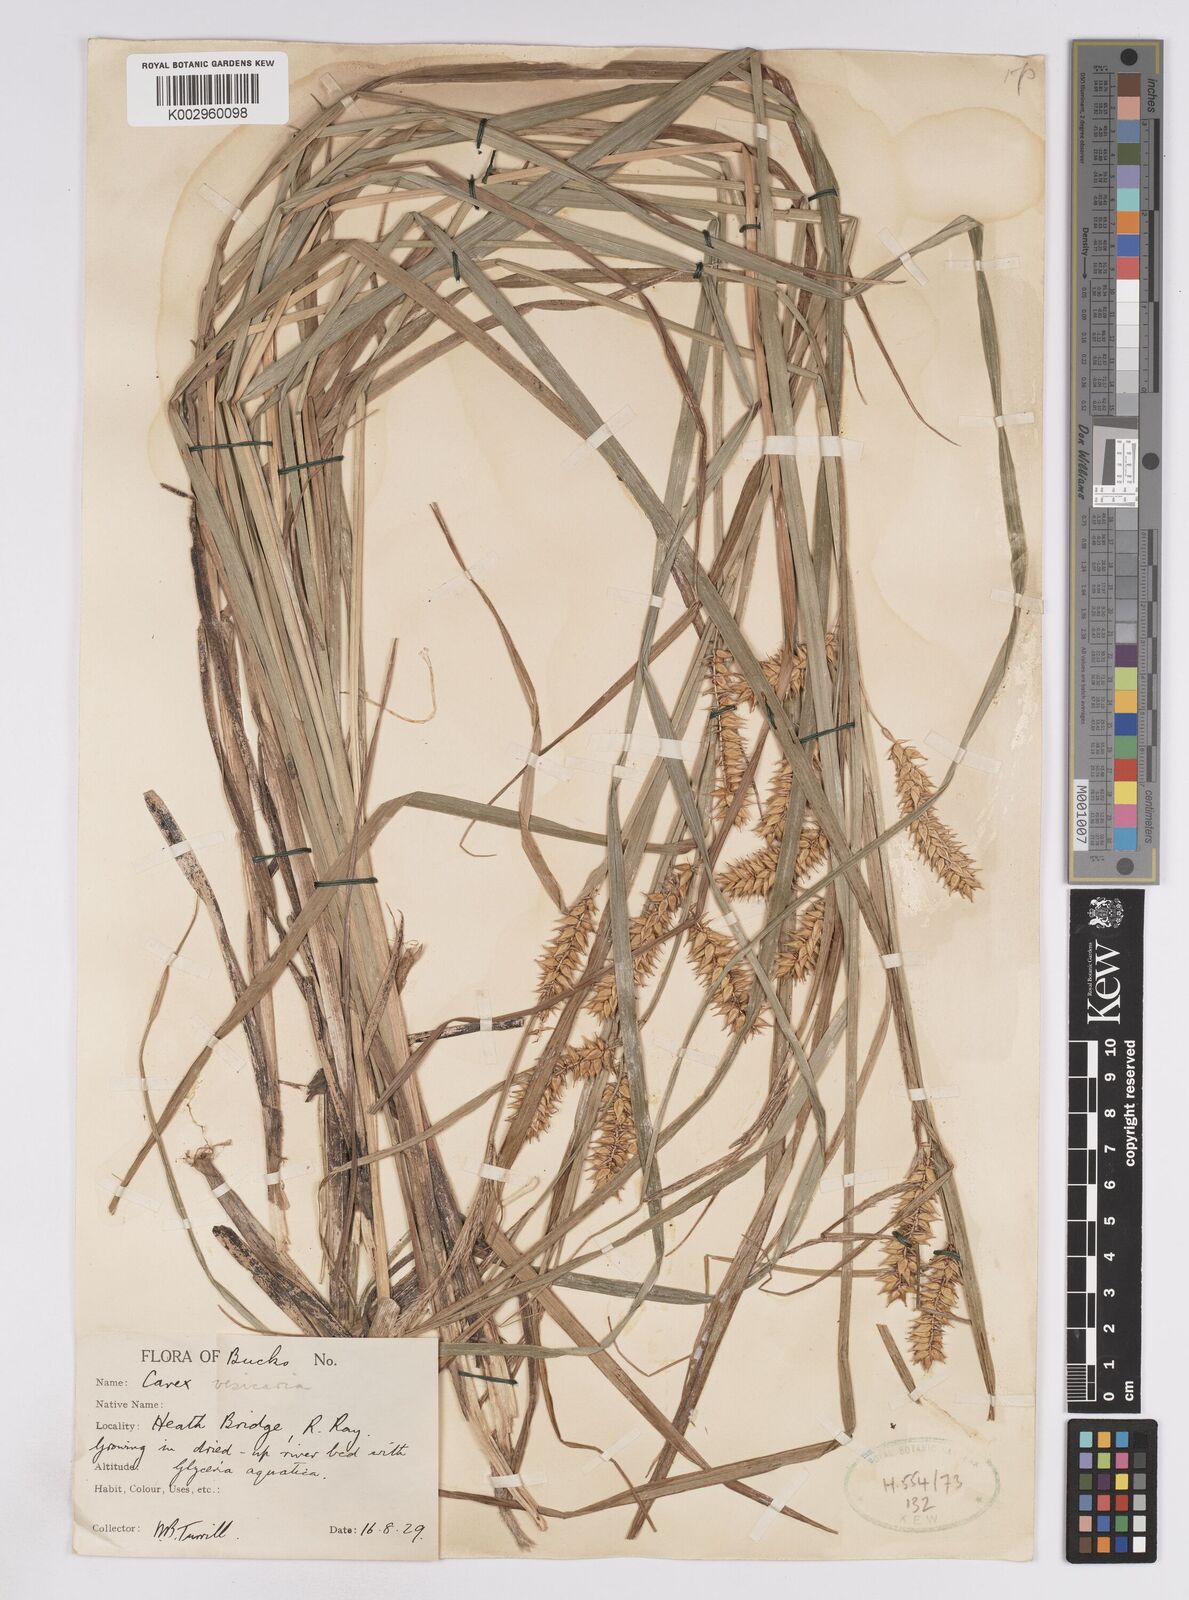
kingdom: Plantae
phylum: Tracheophyta
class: Liliopsida
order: Poales
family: Cyperaceae
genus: Carex
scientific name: Carex vesicaria
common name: Bladder-sedge
